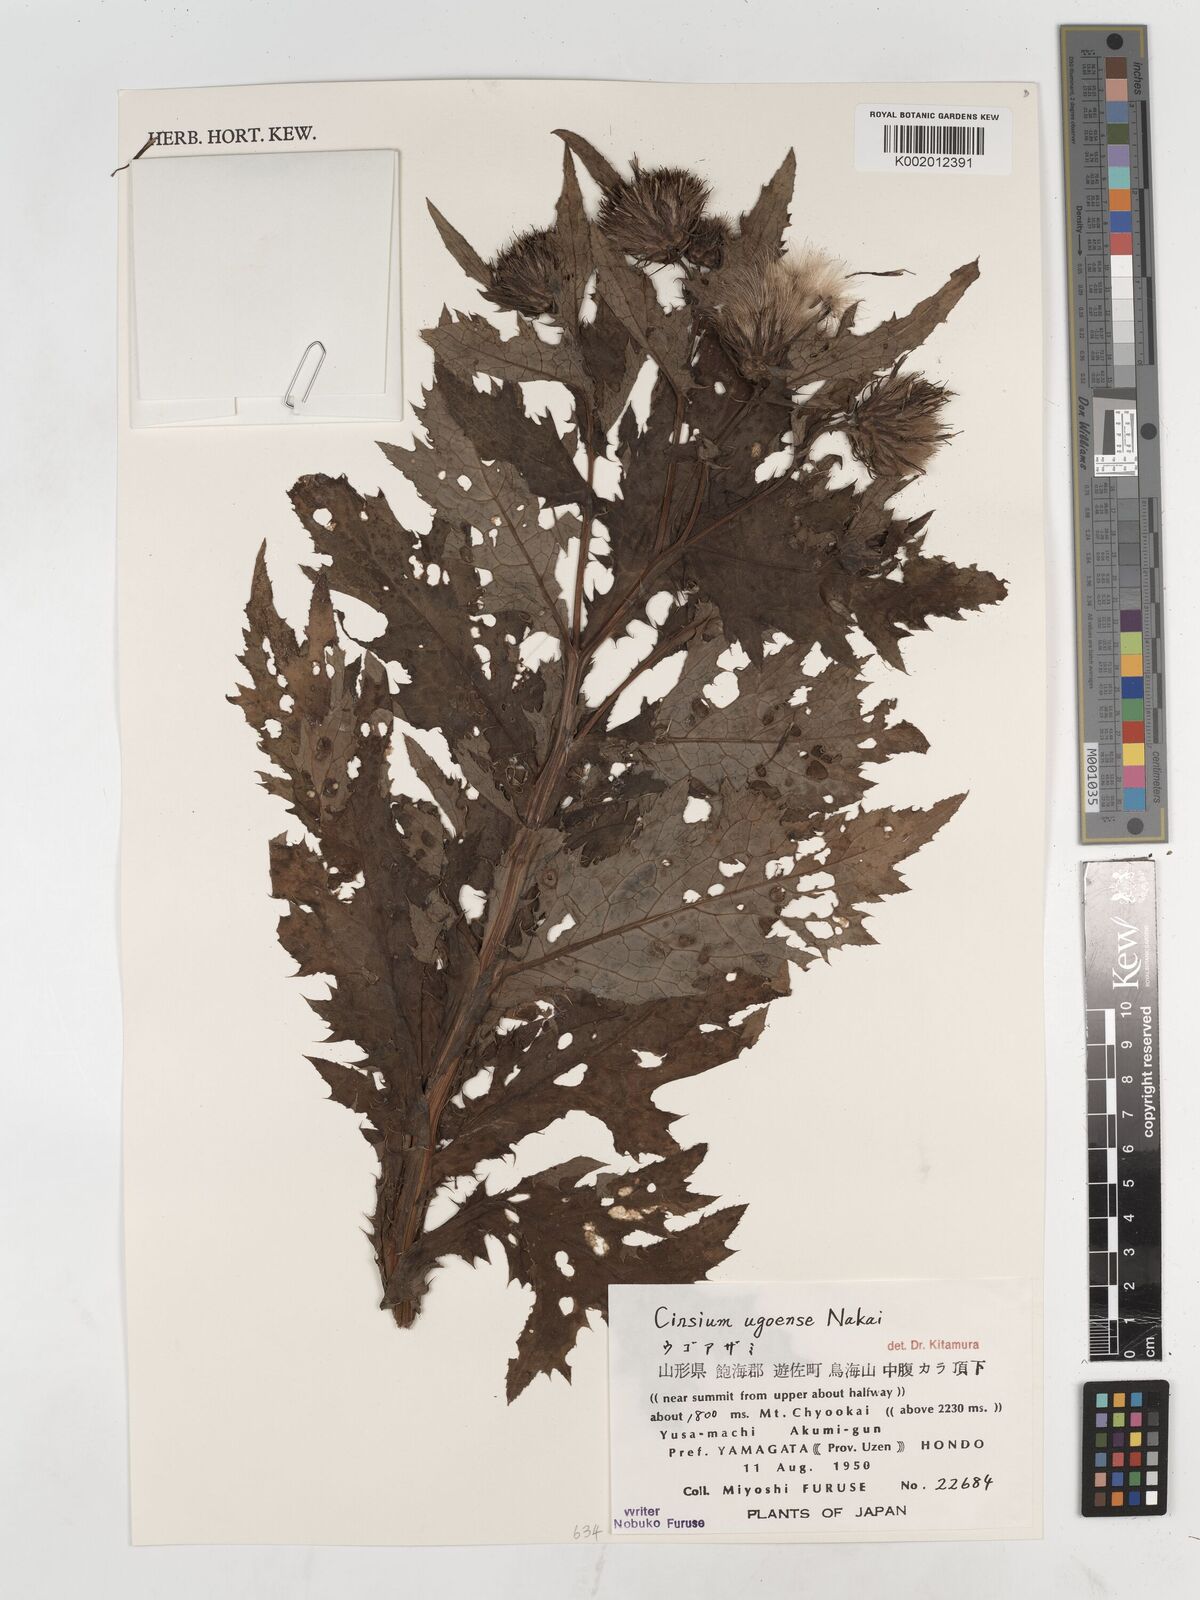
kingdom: Plantae
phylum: Tracheophyta
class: Magnoliopsida
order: Asterales
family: Asteraceae
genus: Cirsium
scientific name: Cirsium ugoense
